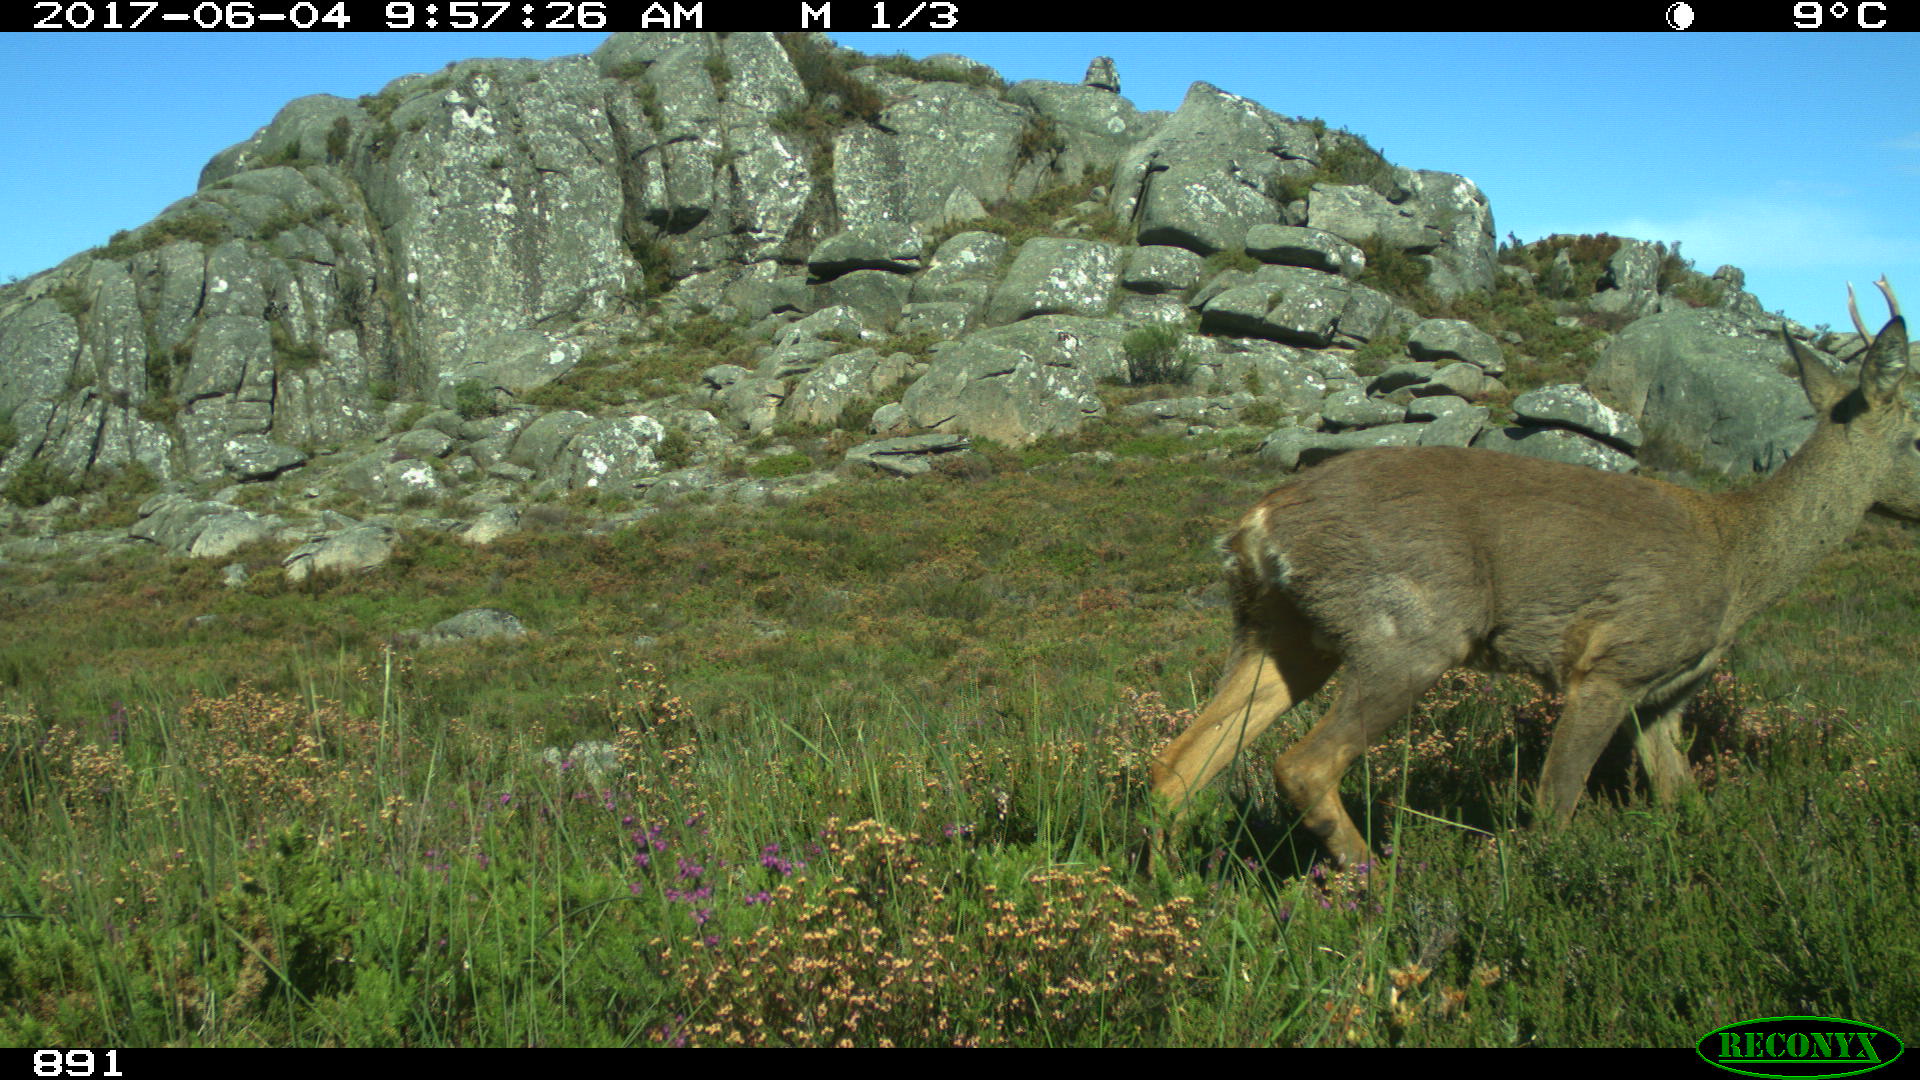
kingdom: Animalia
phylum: Chordata
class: Mammalia
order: Artiodactyla
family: Cervidae
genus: Capreolus
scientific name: Capreolus capreolus
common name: Western roe deer
